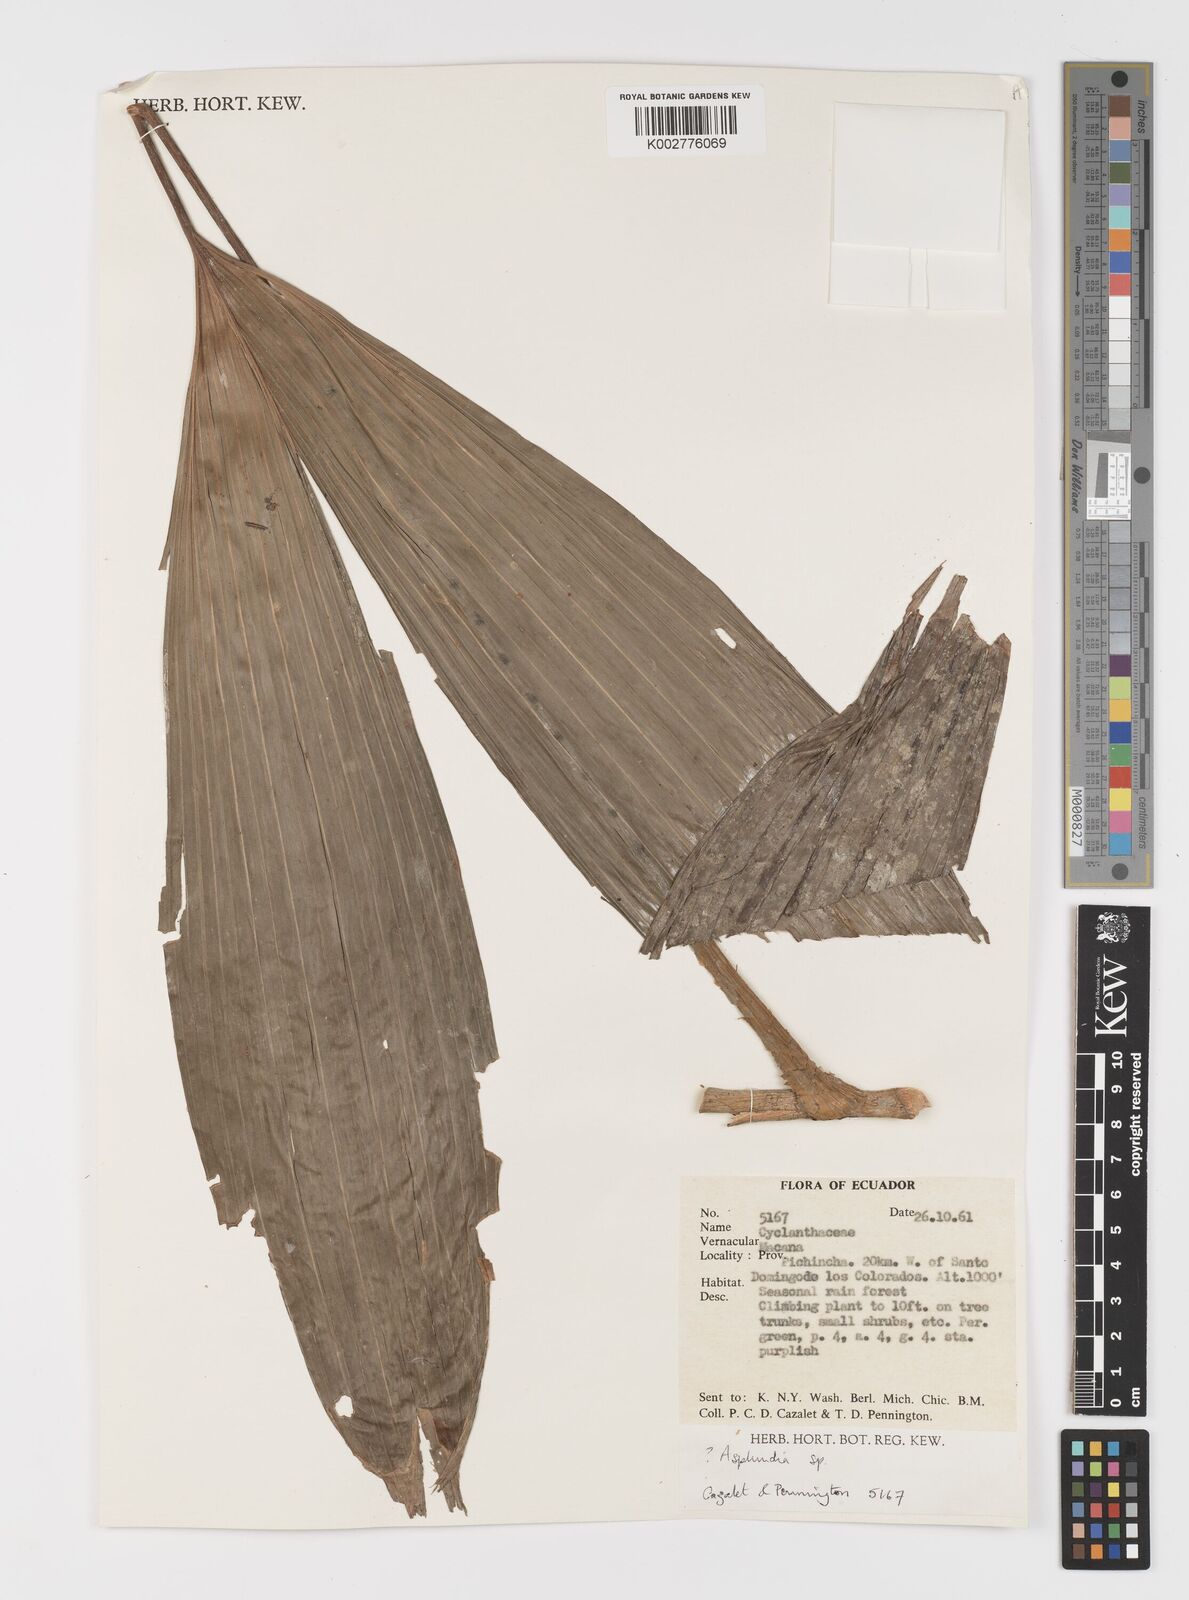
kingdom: Plantae
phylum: Tracheophyta
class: Liliopsida
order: Pandanales
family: Cyclanthaceae
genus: Asplundia
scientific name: Asplundia
